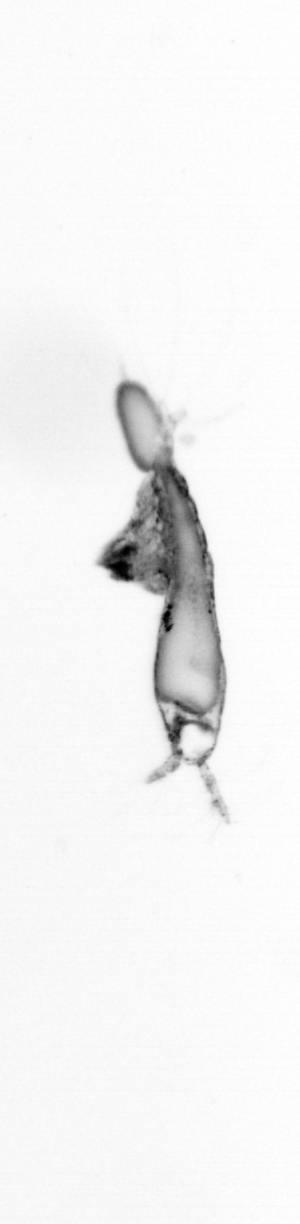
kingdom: Animalia
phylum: Arthropoda
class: Copepoda
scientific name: Copepoda
